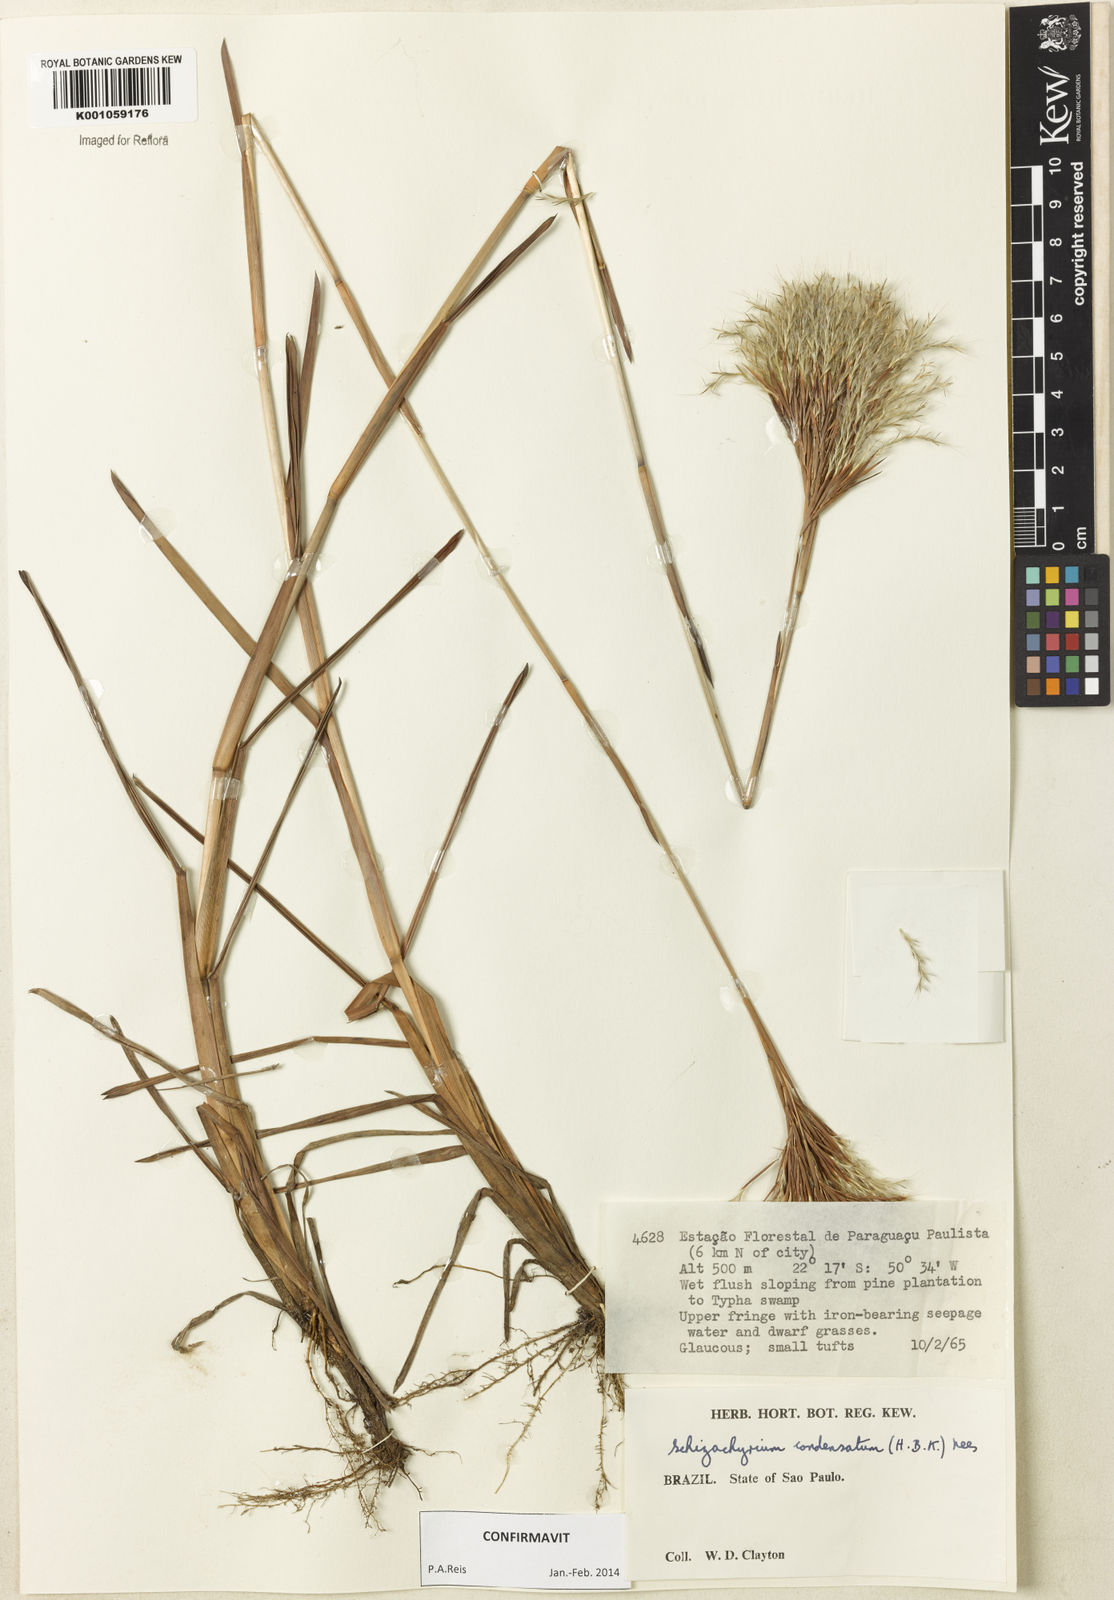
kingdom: Plantae
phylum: Tracheophyta
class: Liliopsida
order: Poales
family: Poaceae
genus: Schizachyrium
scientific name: Schizachyrium condensatum
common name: Bush beardgrass
